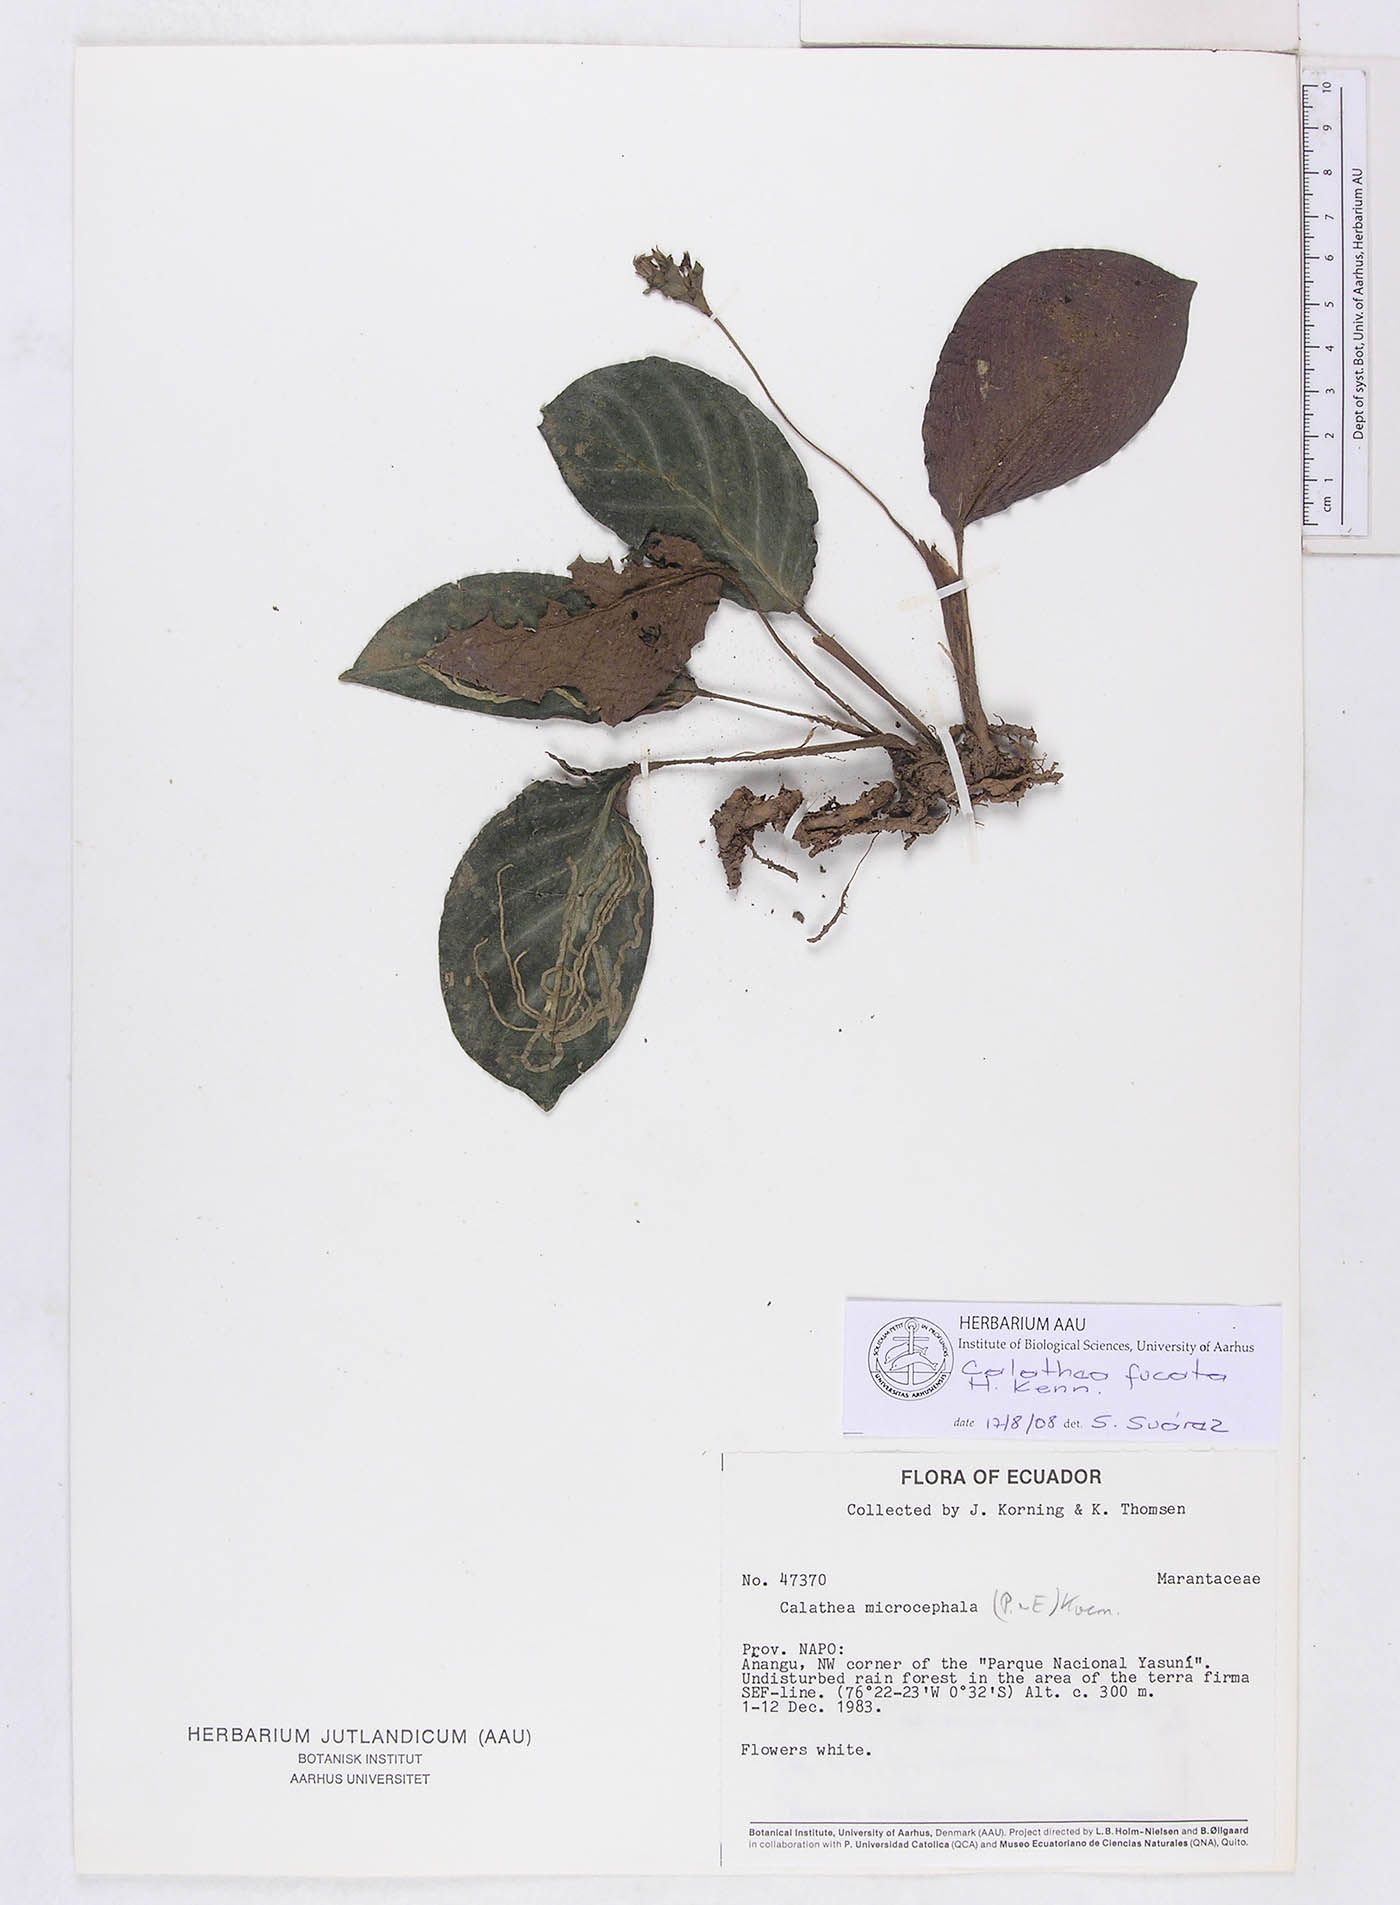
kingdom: Plantae
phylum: Tracheophyta
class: Liliopsida
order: Zingiberales
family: Marantaceae
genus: Goeppertia
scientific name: Goeppertia fucata
